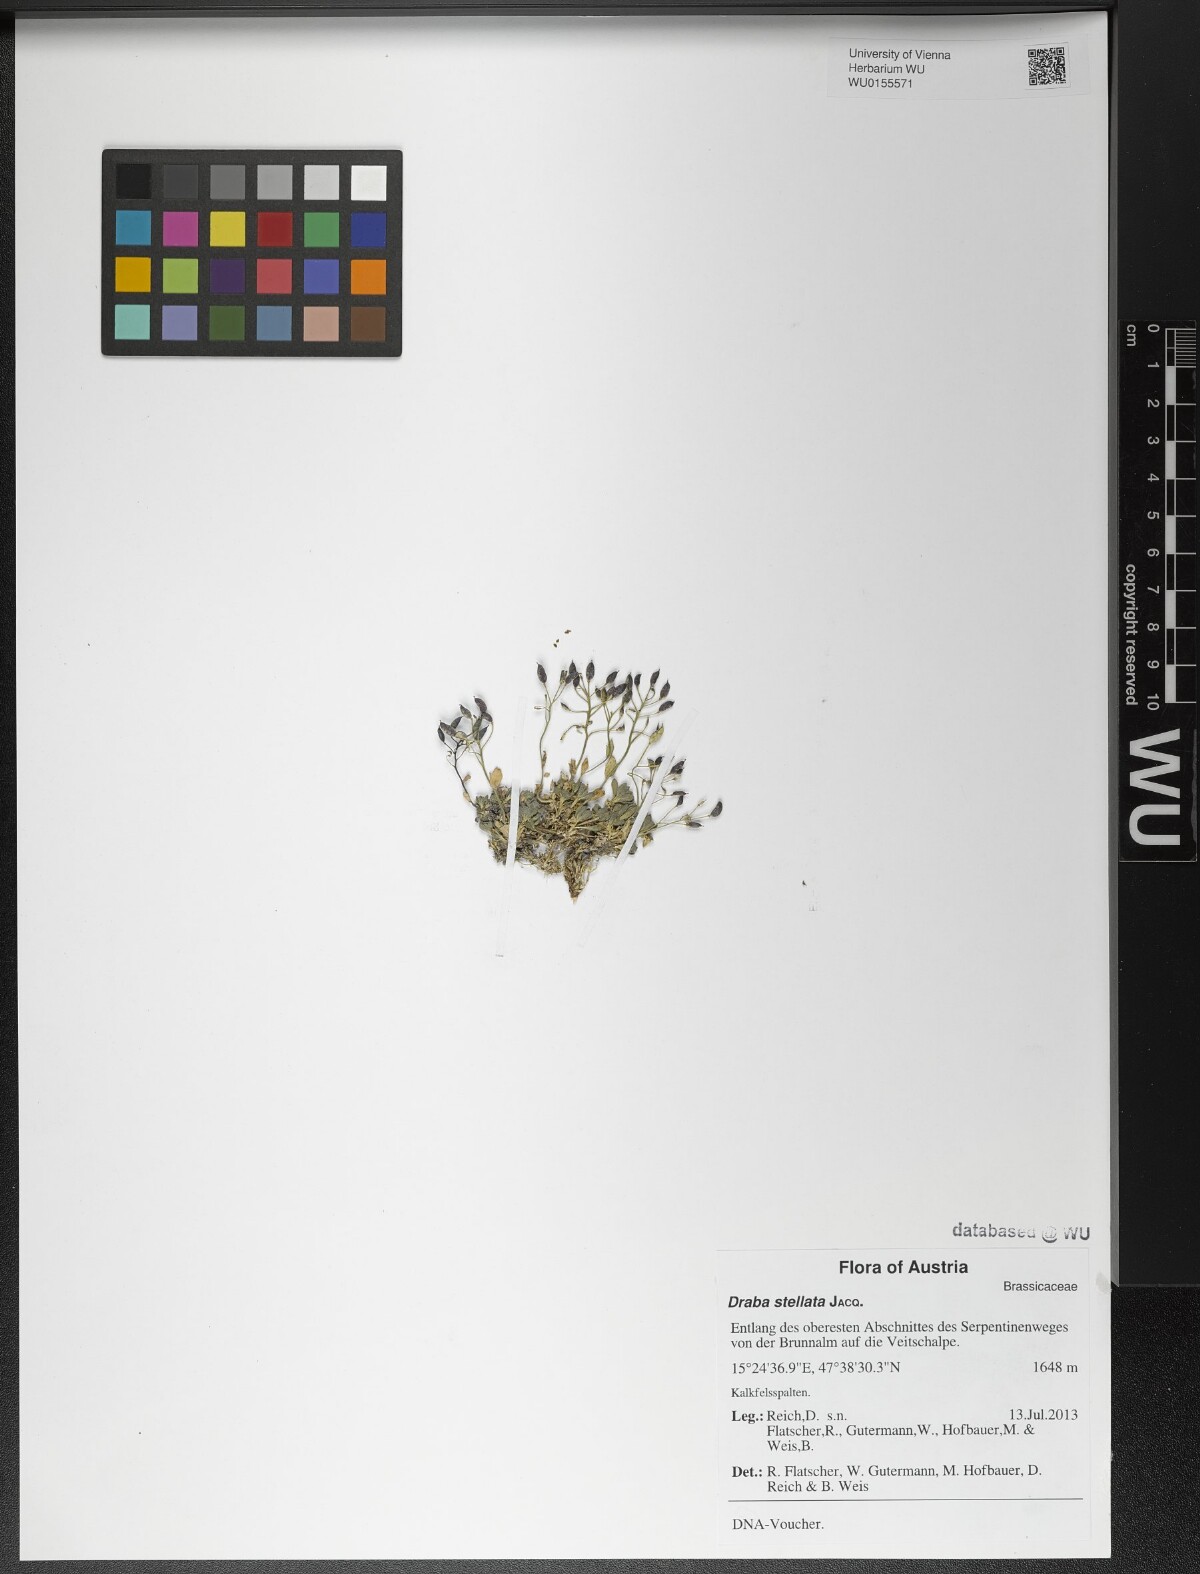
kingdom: Plantae
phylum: Tracheophyta
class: Magnoliopsida
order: Brassicales
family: Brassicaceae
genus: Draba
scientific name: Draba stellata
